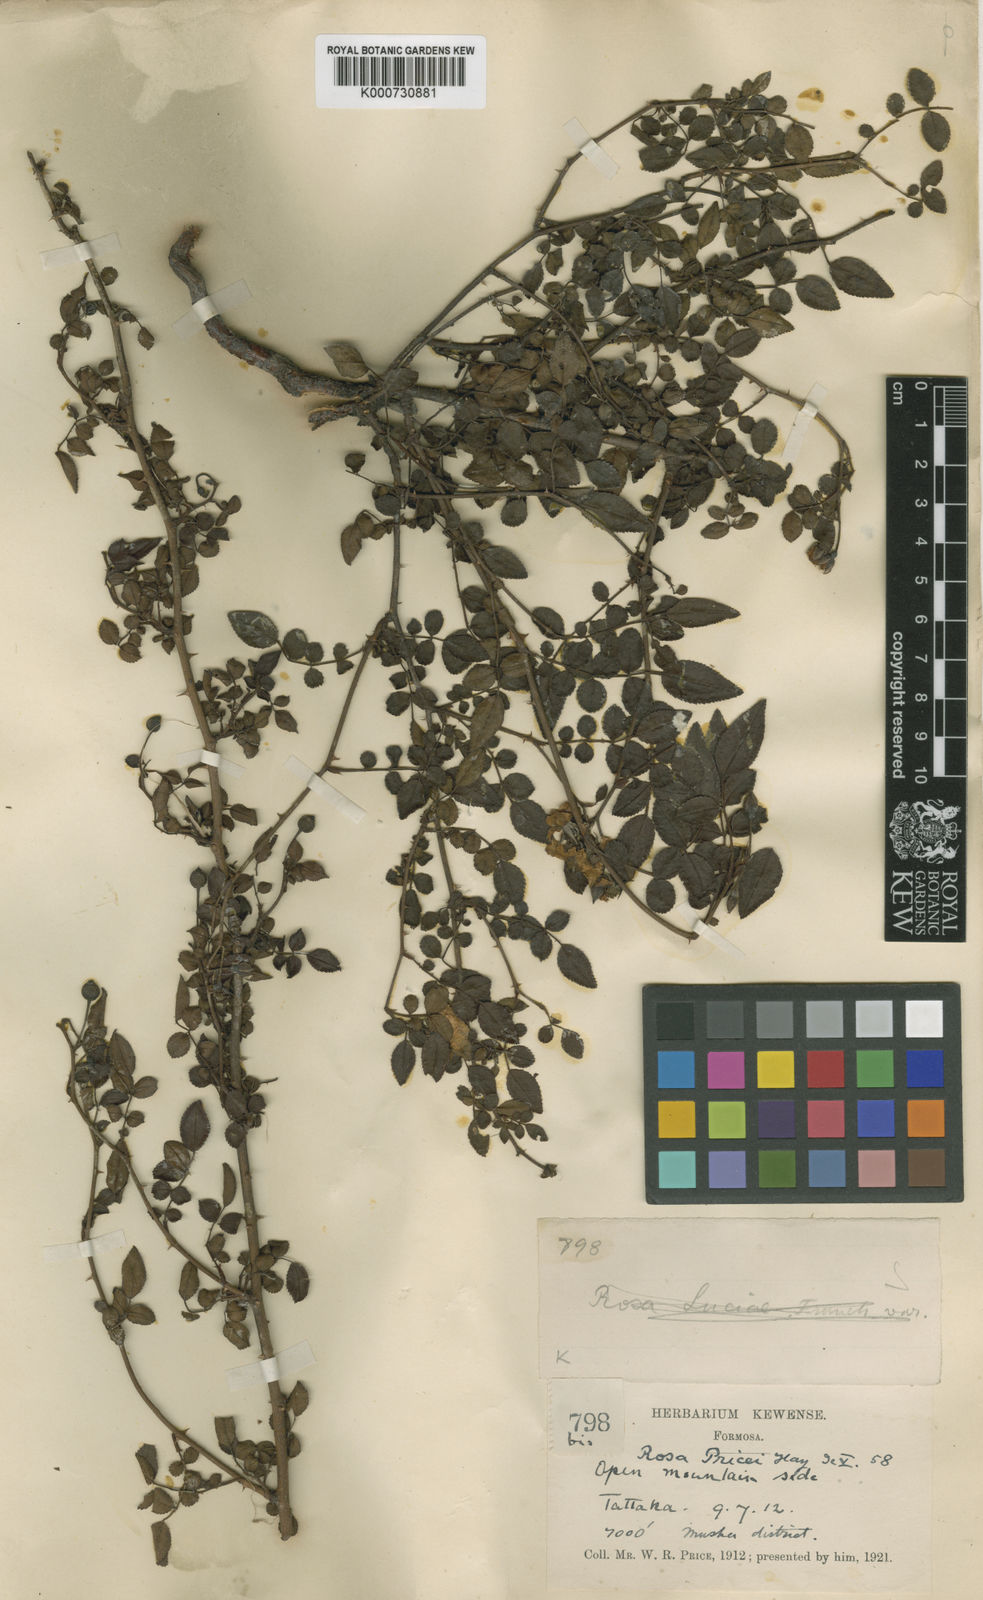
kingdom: Plantae
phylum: Tracheophyta
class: Magnoliopsida
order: Rosales
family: Rosaceae
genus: Rosa
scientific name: Rosa pricei
